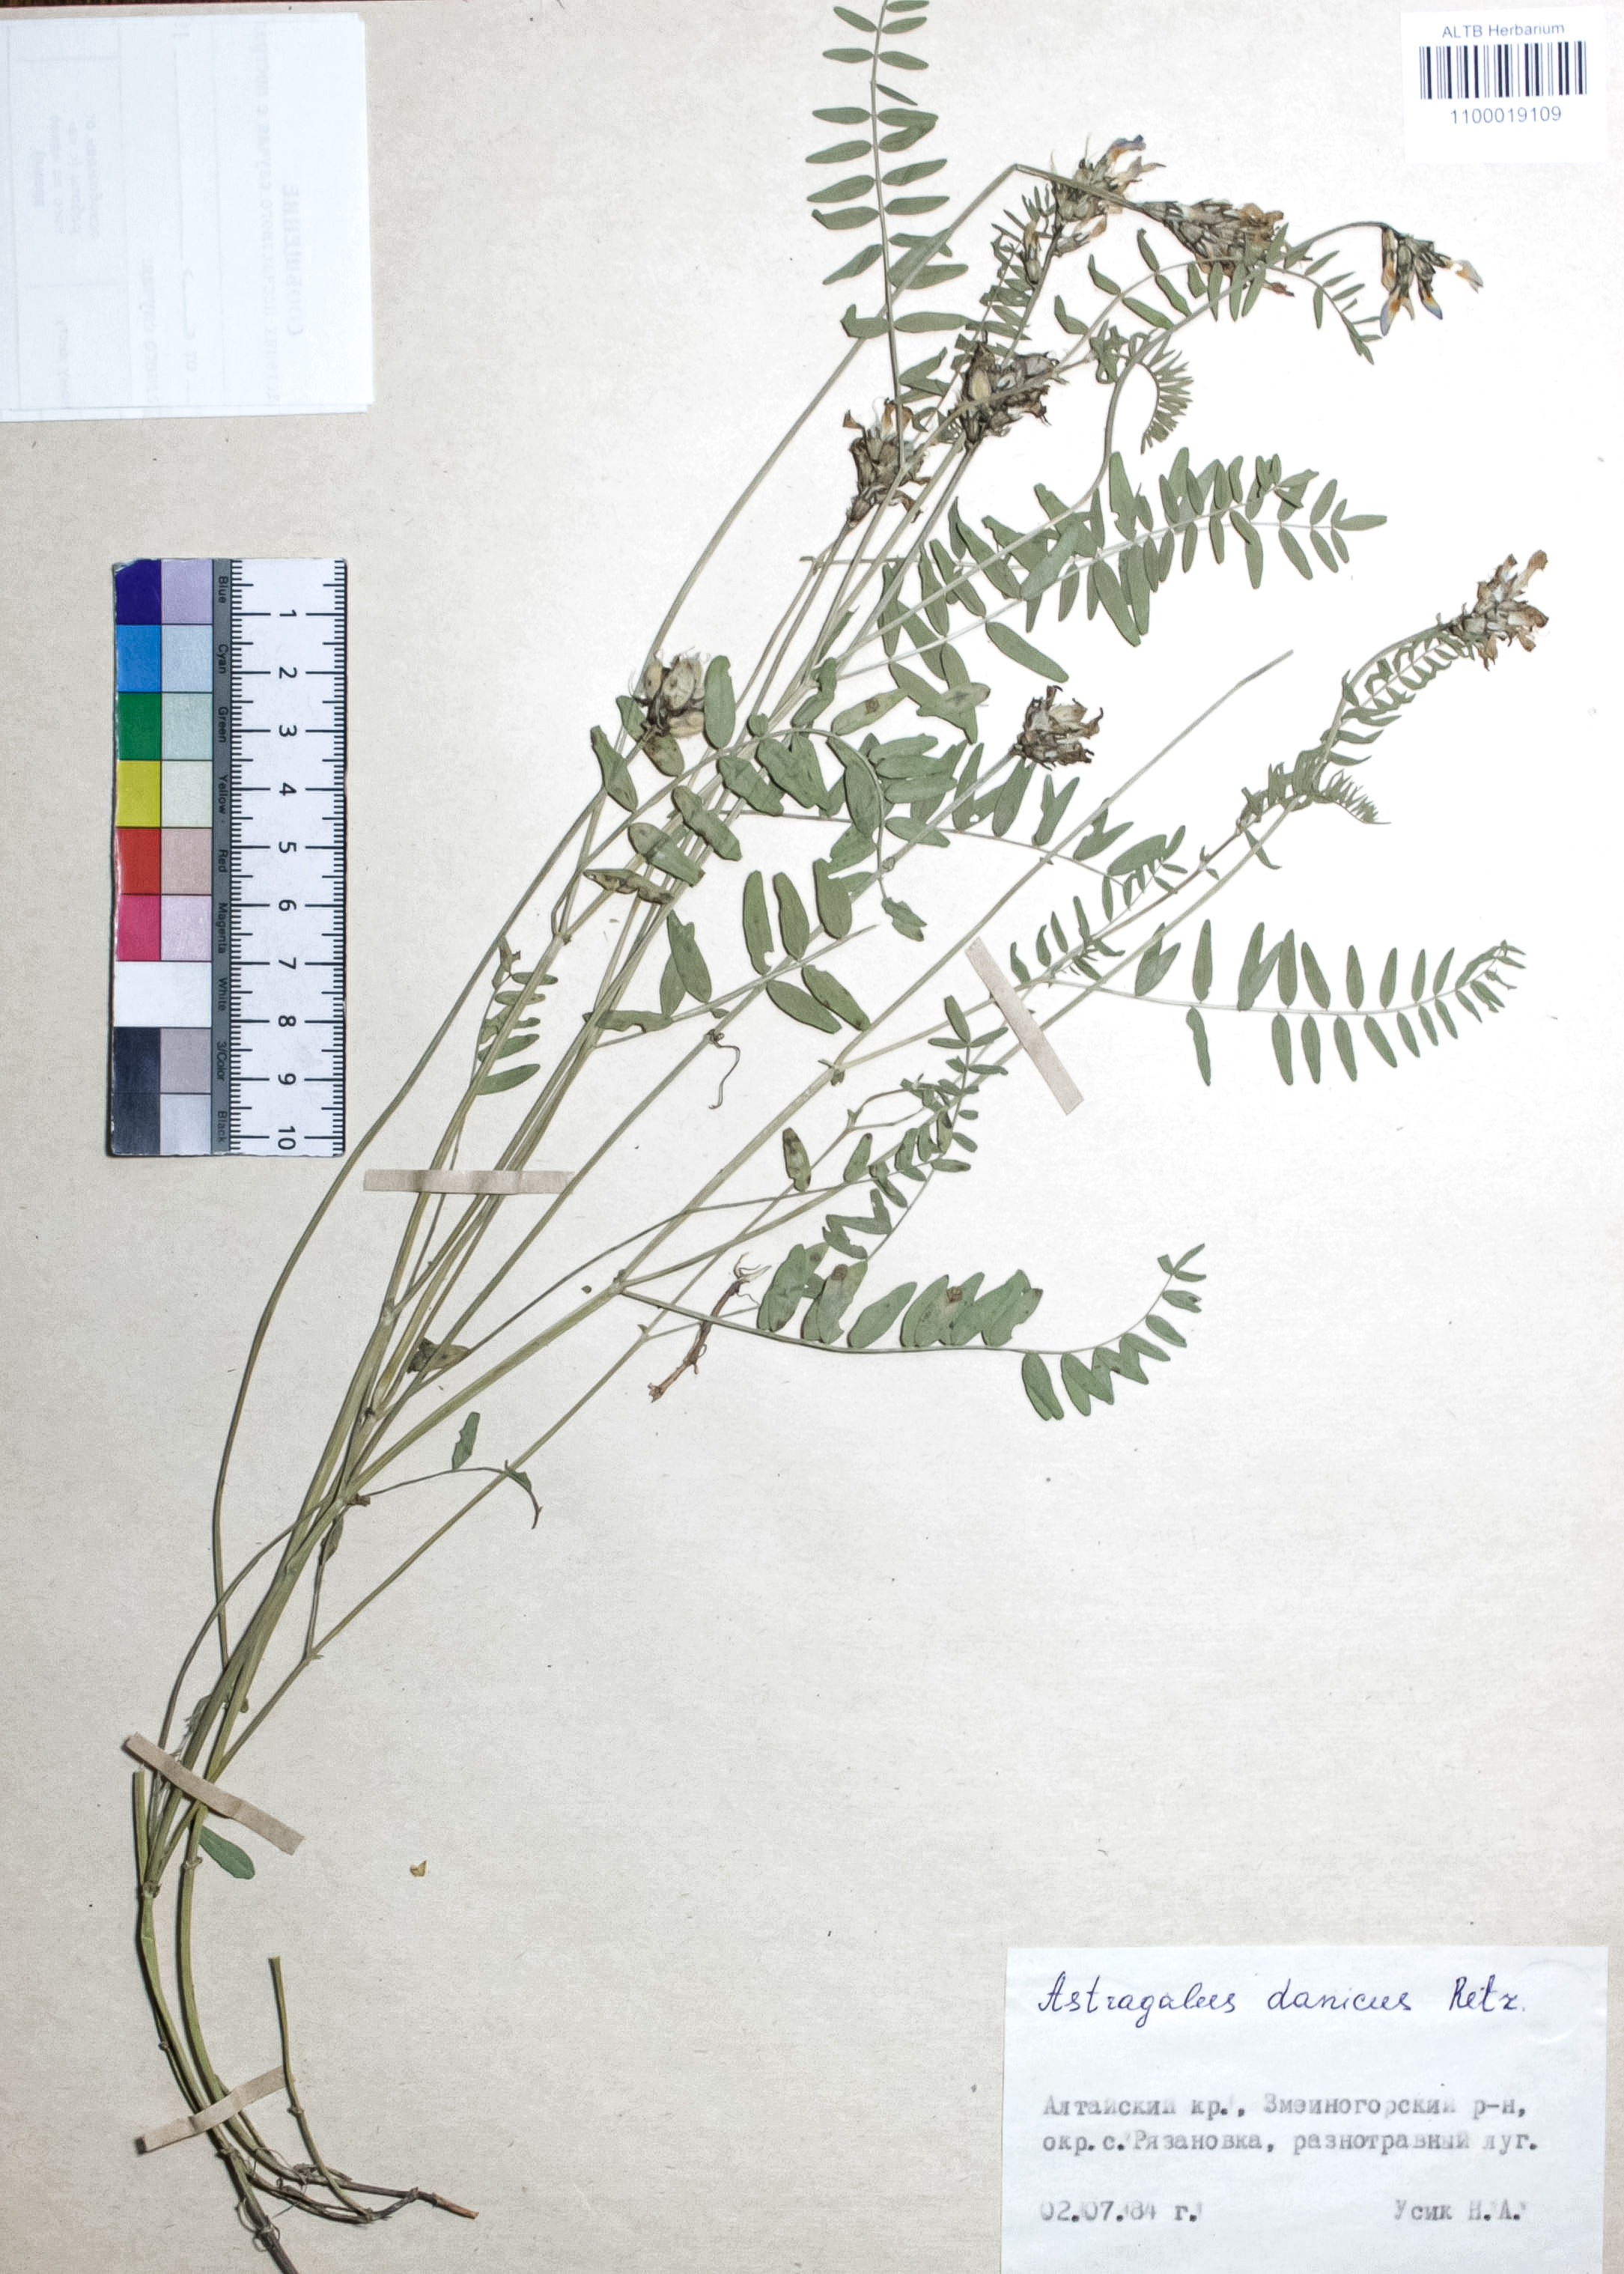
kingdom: Plantae
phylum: Tracheophyta
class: Magnoliopsida
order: Fabales
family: Fabaceae
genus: Astragalus
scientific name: Astragalus danicus
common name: Purple milk-vetch
